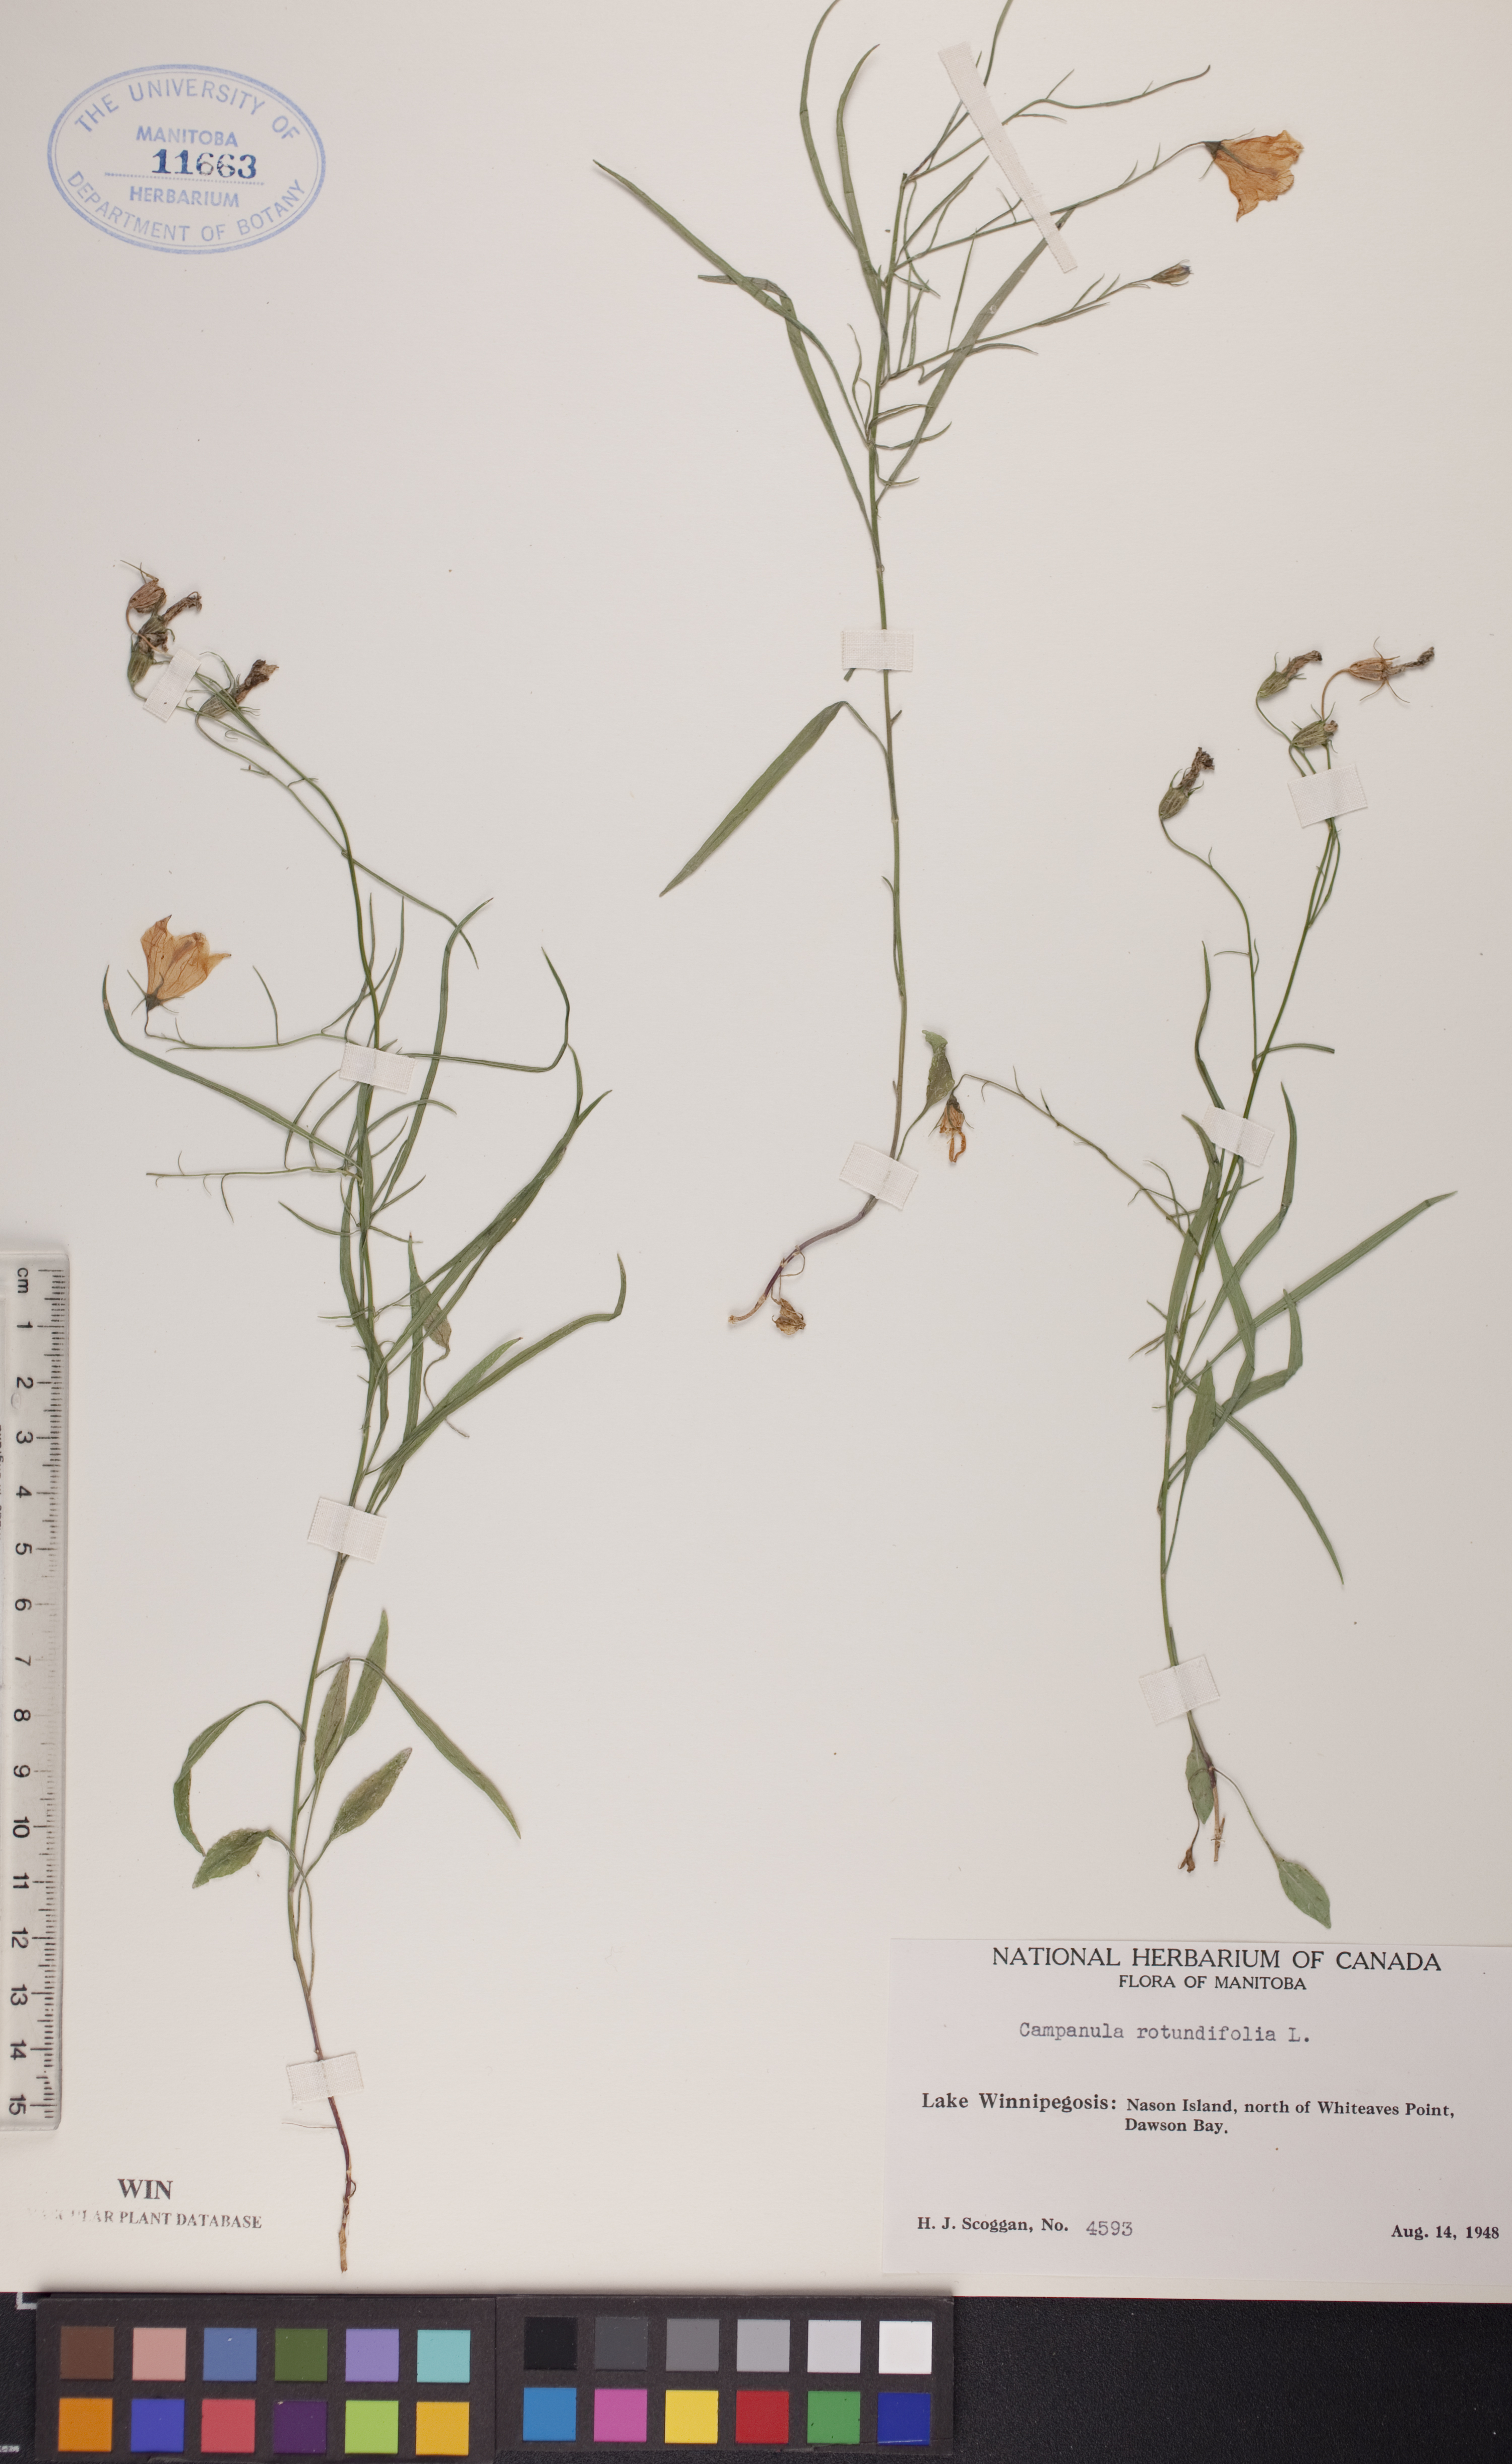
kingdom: Plantae
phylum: Tracheophyta
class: Magnoliopsida
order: Asterales
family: Campanulaceae
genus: Campanula
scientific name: Campanula rotundifolia
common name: Harebell
